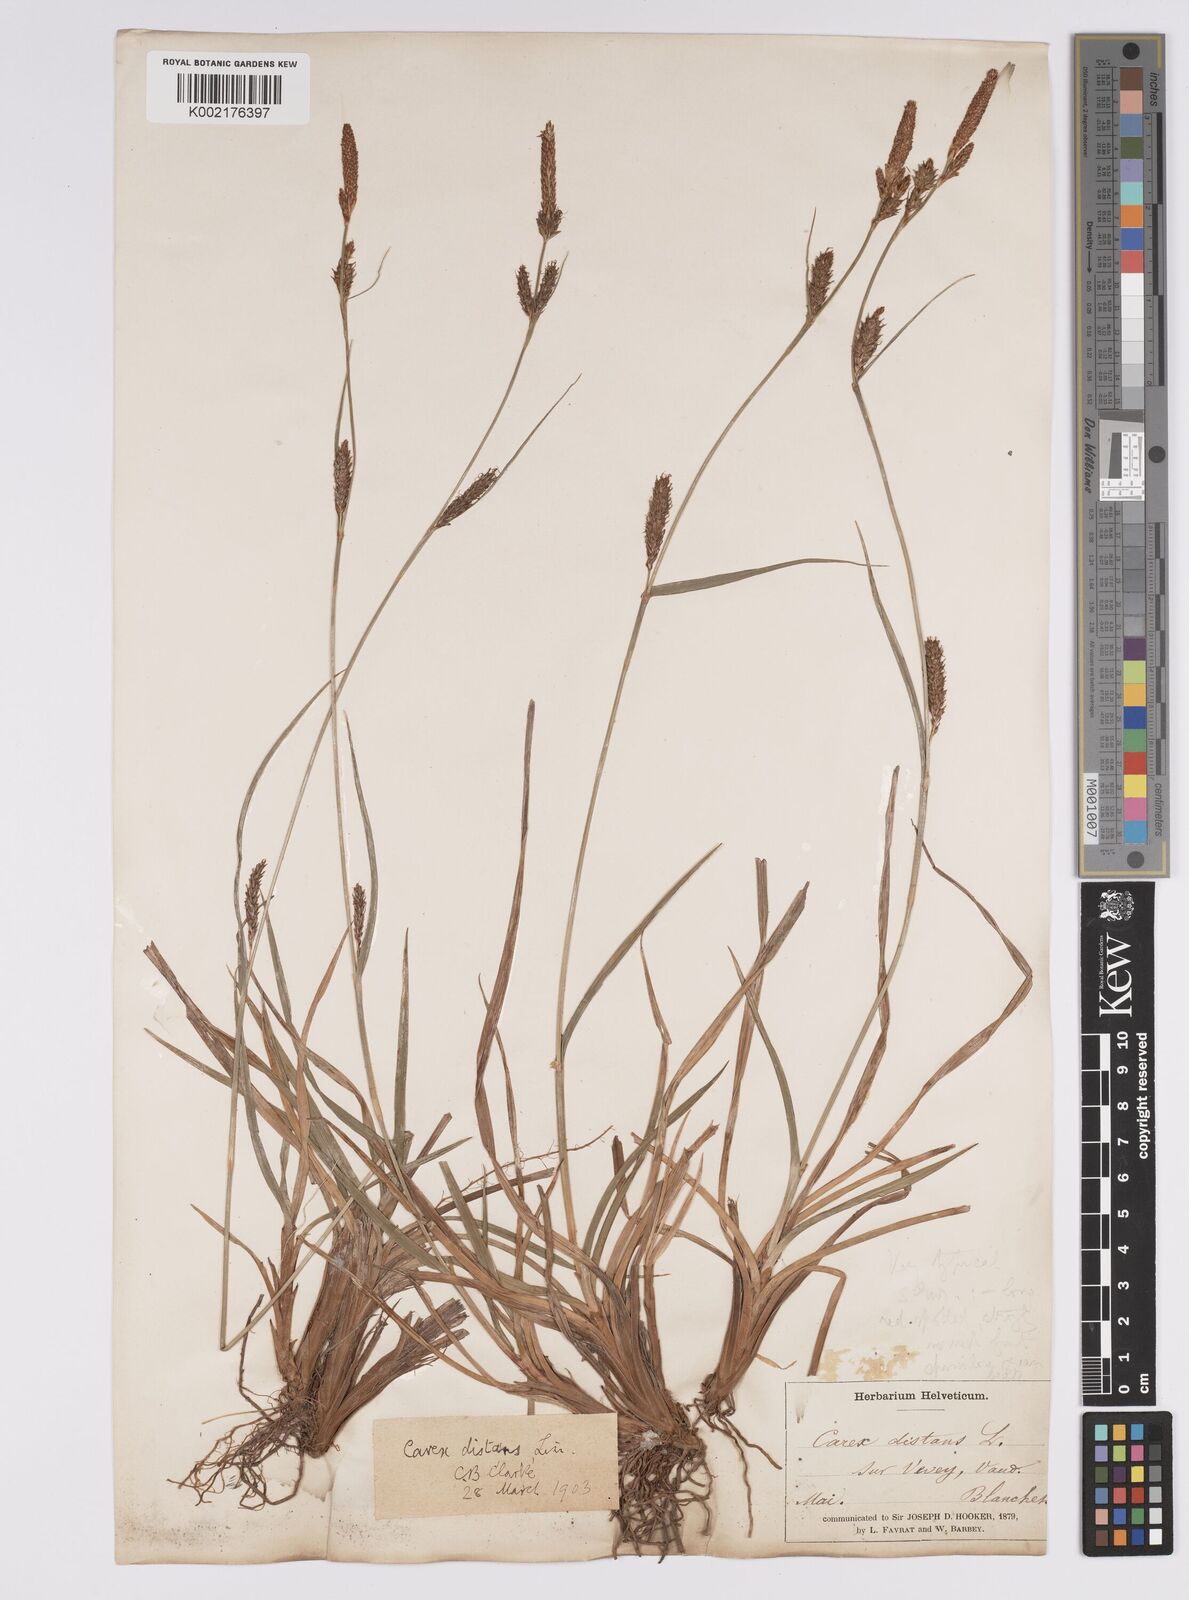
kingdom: Plantae
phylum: Tracheophyta
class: Liliopsida
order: Poales
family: Cyperaceae
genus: Carex
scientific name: Carex distans
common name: Distant sedge
